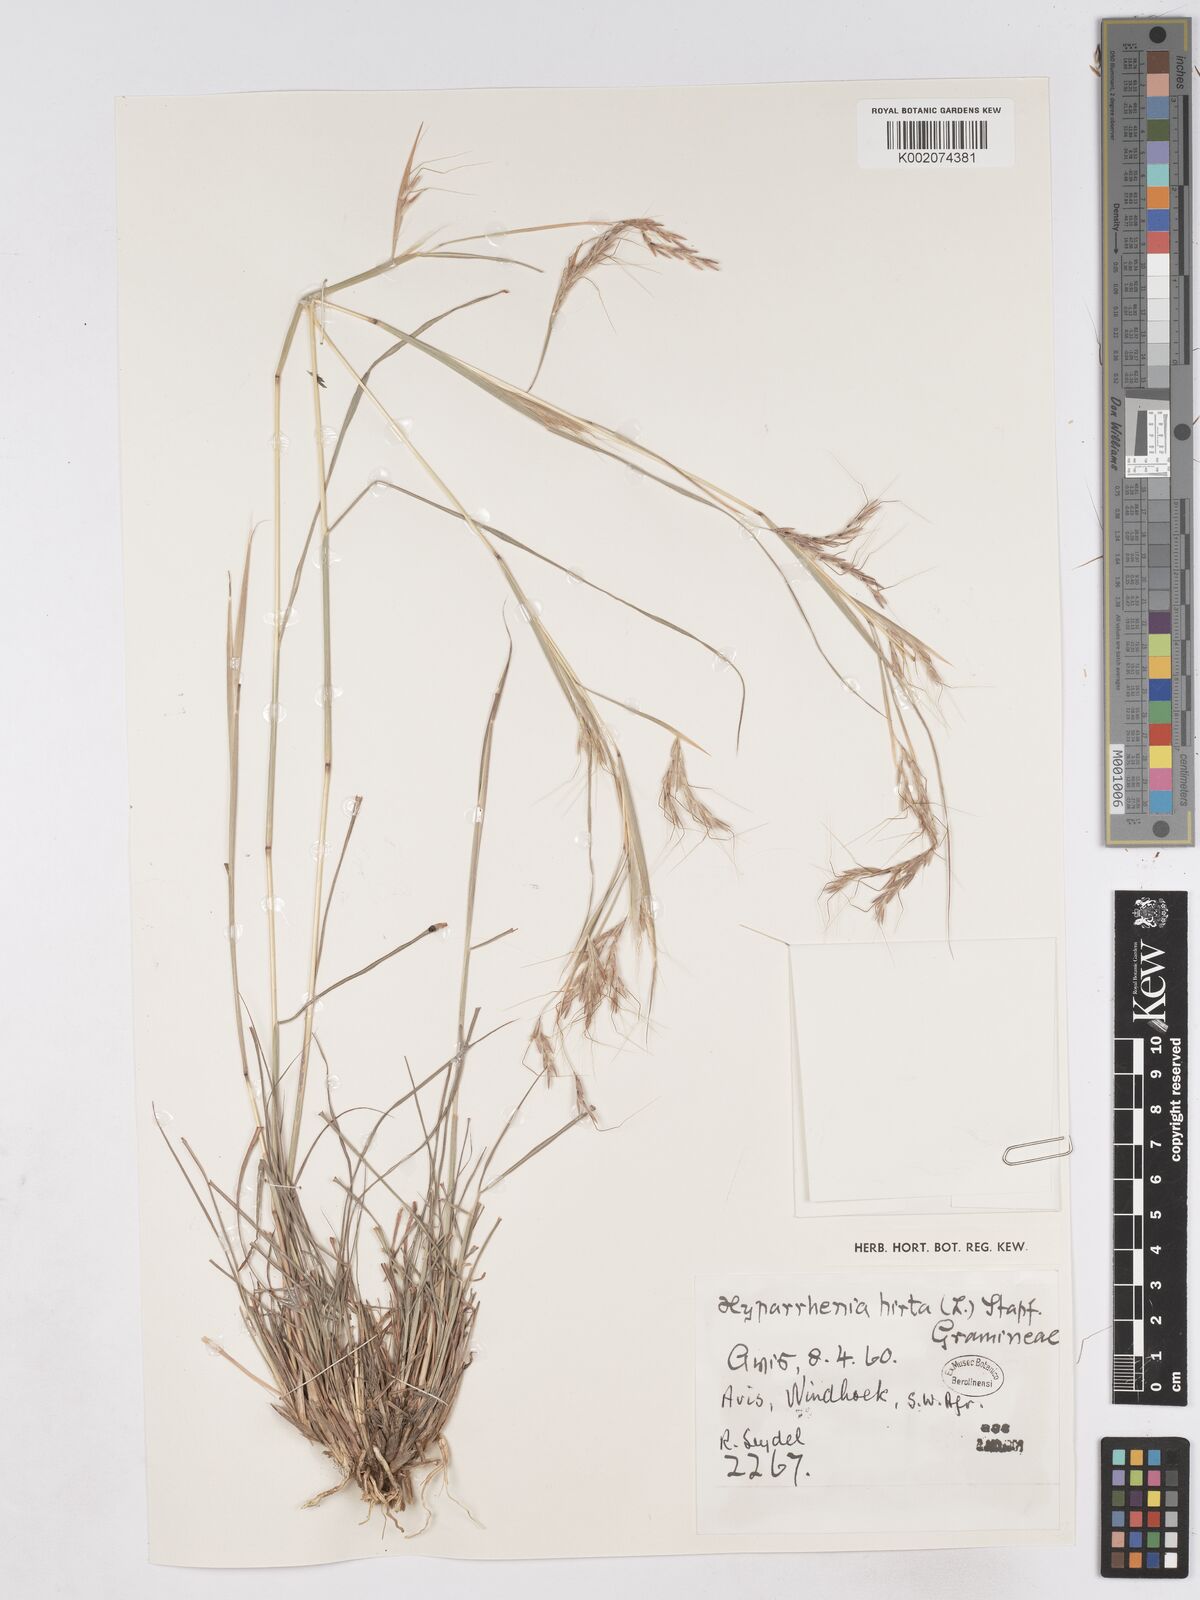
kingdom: Plantae
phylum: Tracheophyta
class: Liliopsida
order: Poales
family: Poaceae
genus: Hyparrhenia
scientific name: Hyparrhenia hirta
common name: Thatching grass
